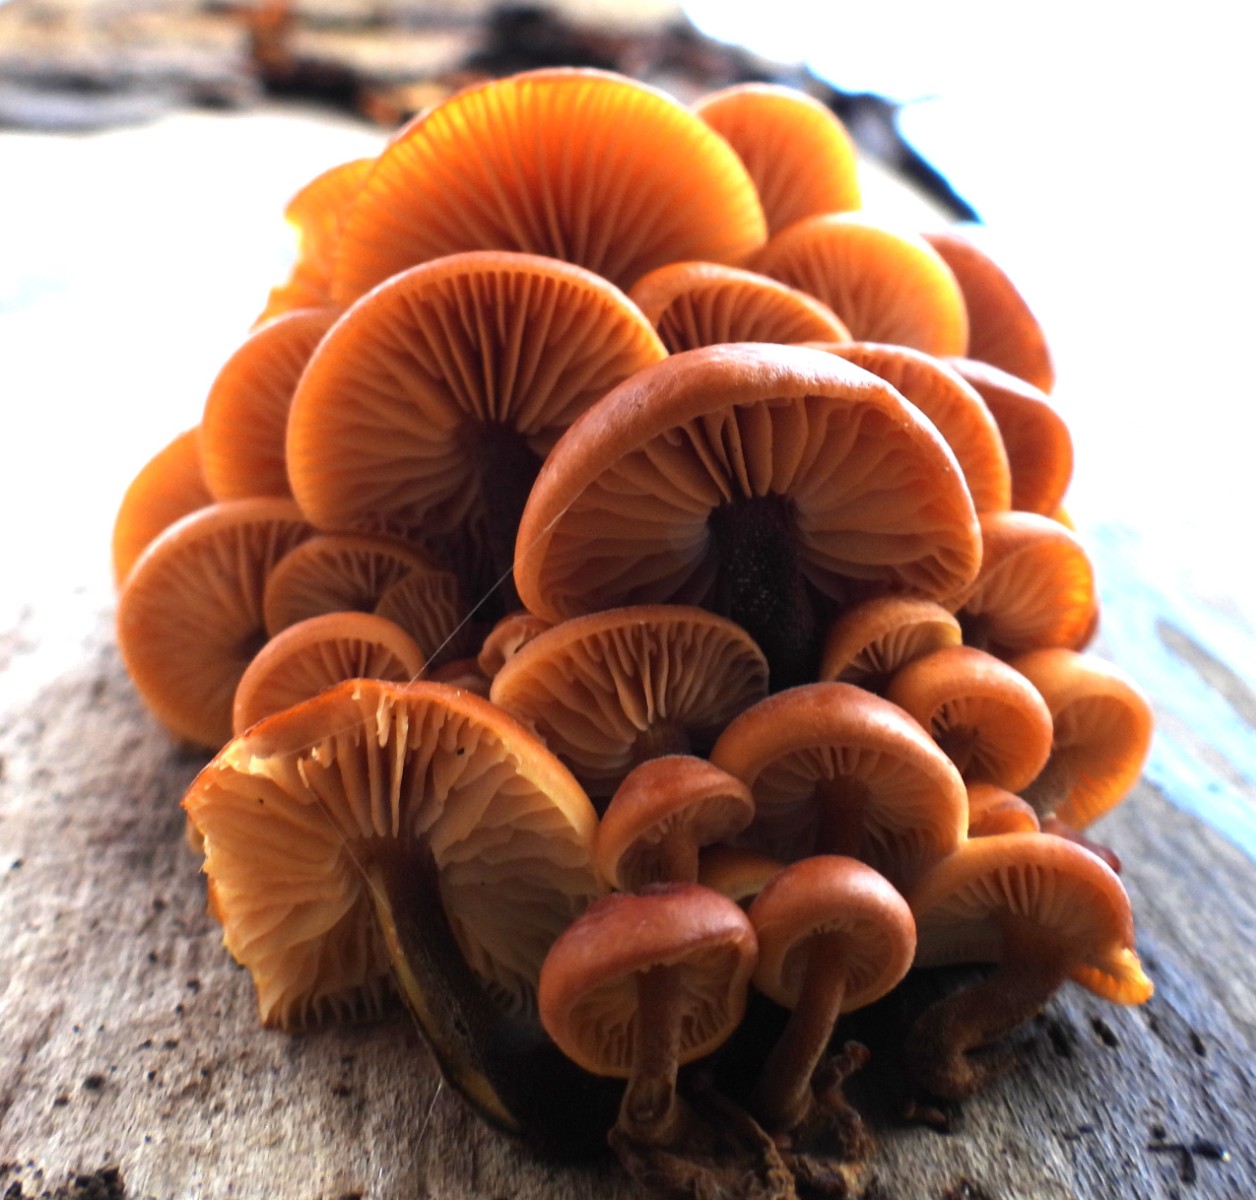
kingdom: Fungi
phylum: Basidiomycota
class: Agaricomycetes
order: Agaricales
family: Physalacriaceae
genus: Flammulina
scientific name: Flammulina velutipes
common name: gul fløjlsfod
